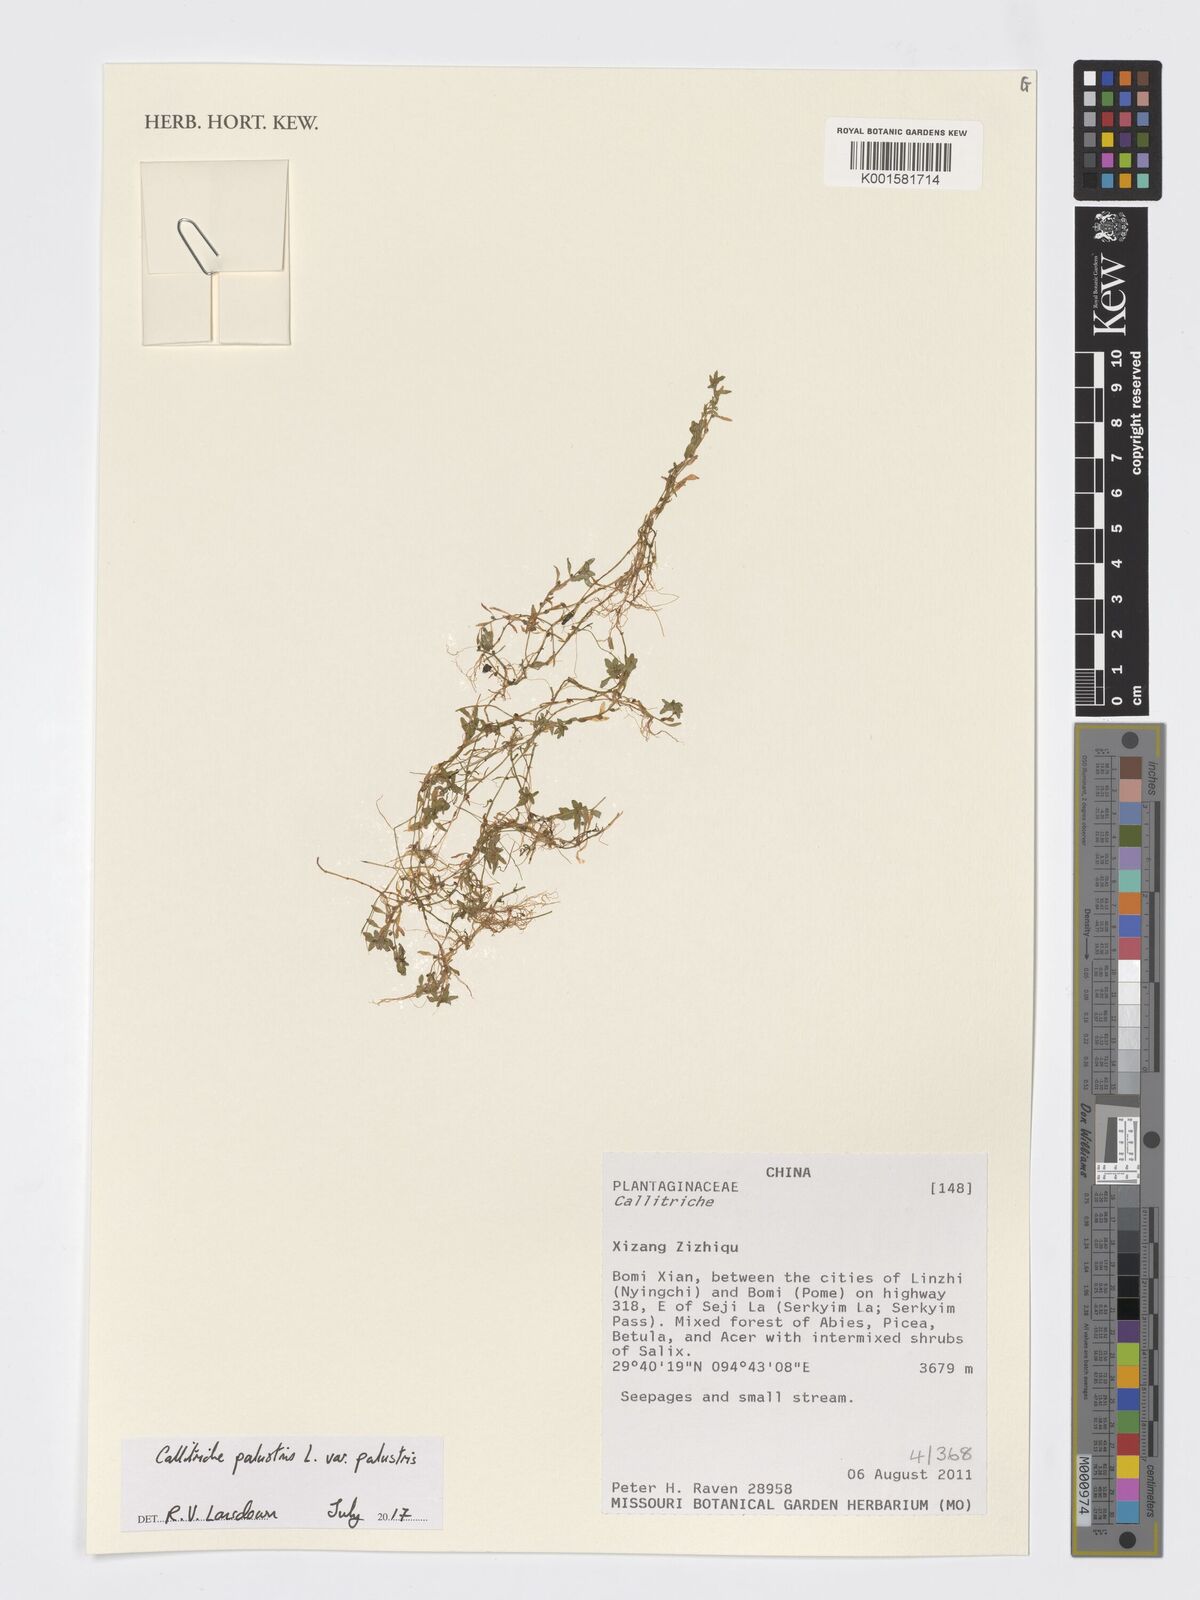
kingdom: Plantae
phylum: Tracheophyta
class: Magnoliopsida
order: Lamiales
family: Plantaginaceae
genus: Callitriche
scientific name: Callitriche palustris
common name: Spring water-starwort
